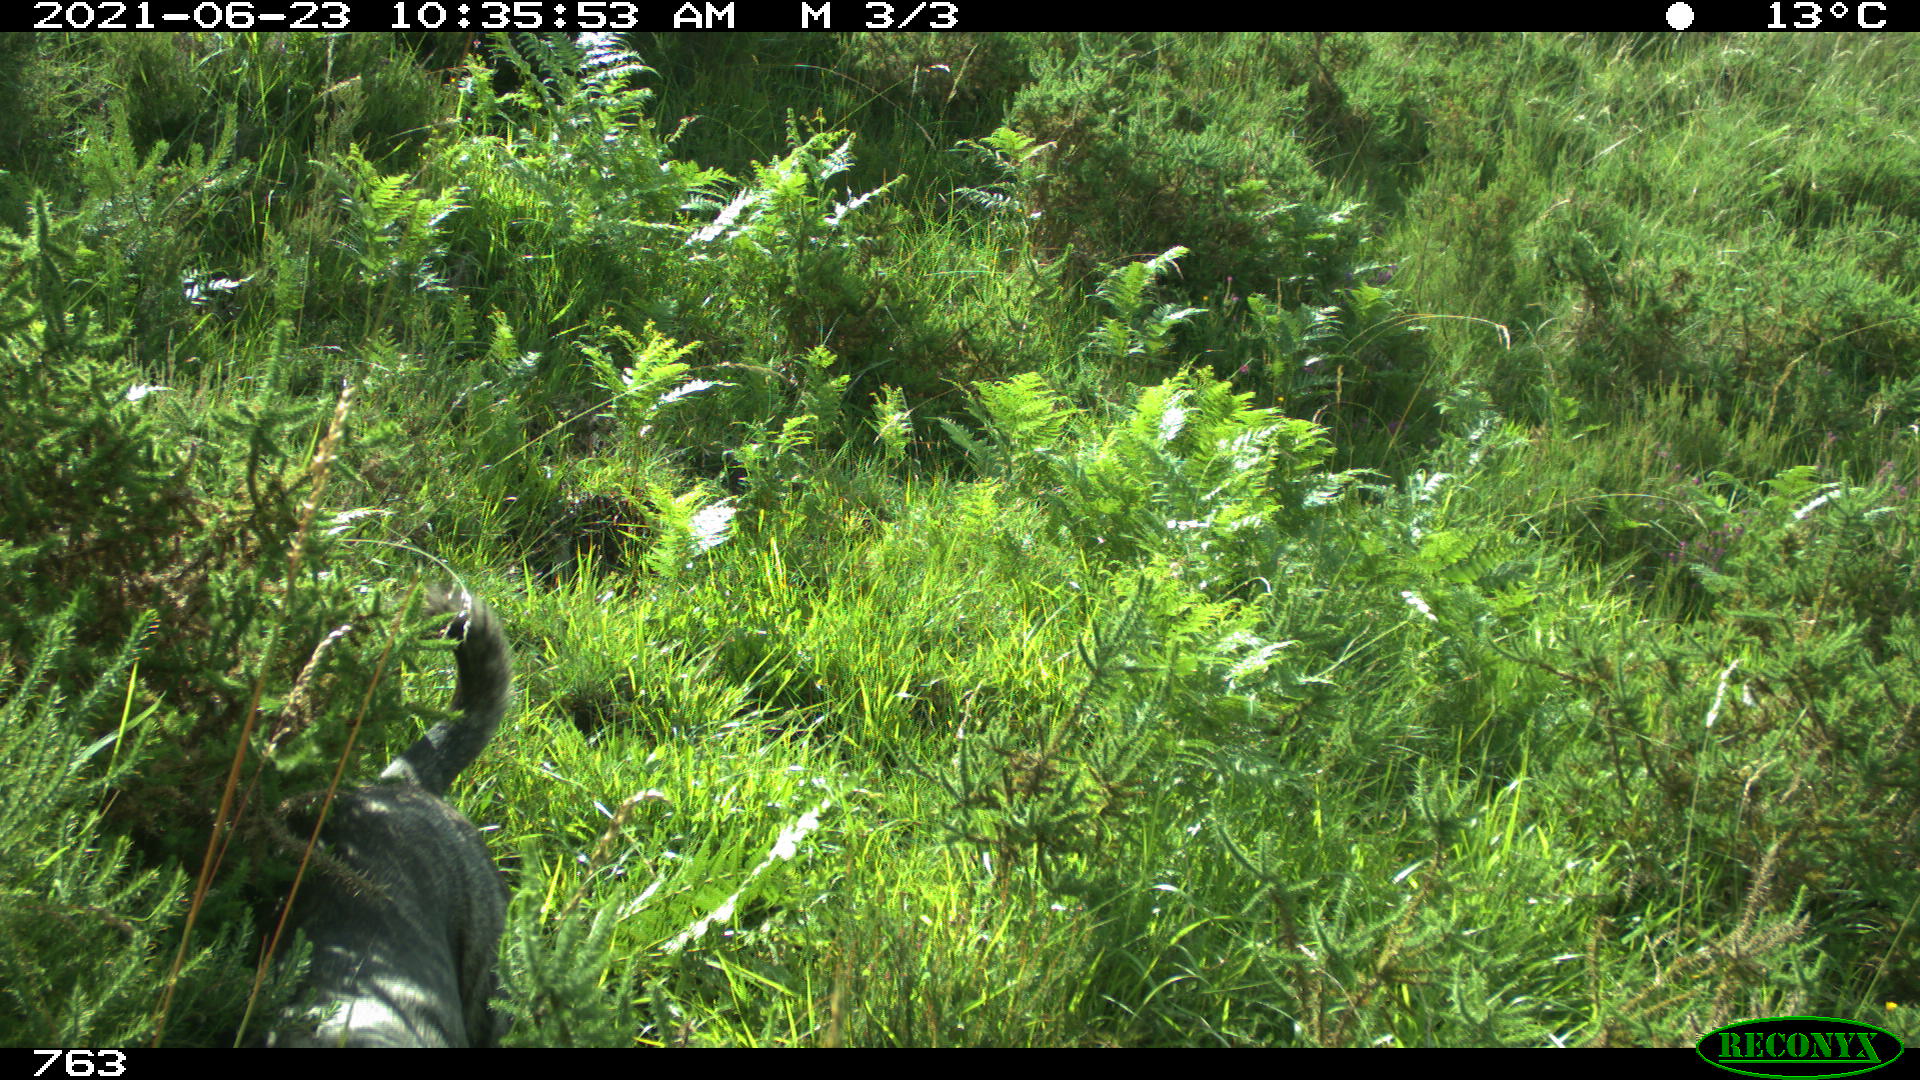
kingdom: Animalia
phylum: Chordata
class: Mammalia
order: Carnivora
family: Canidae
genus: Canis
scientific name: Canis lupus
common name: Gray wolf
